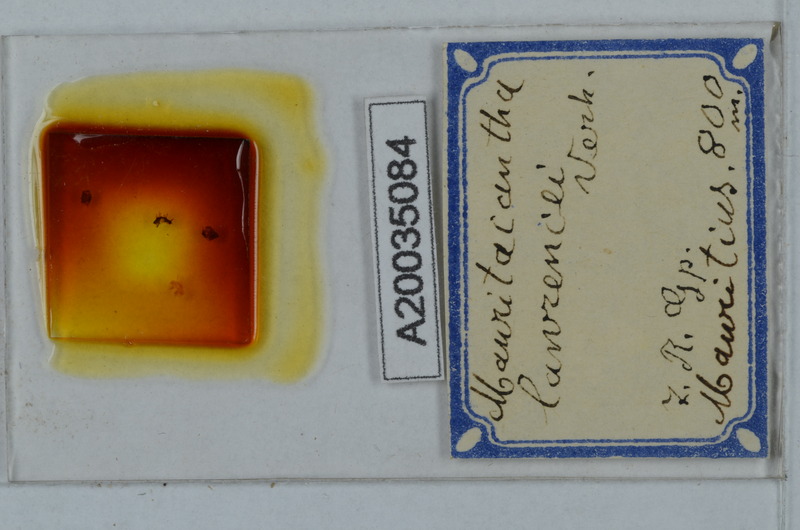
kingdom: Animalia
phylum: Arthropoda
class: Diplopoda
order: Polydesmida
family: Trichopolydesmidae
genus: Mauritacantha
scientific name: Mauritacantha lawrencei
